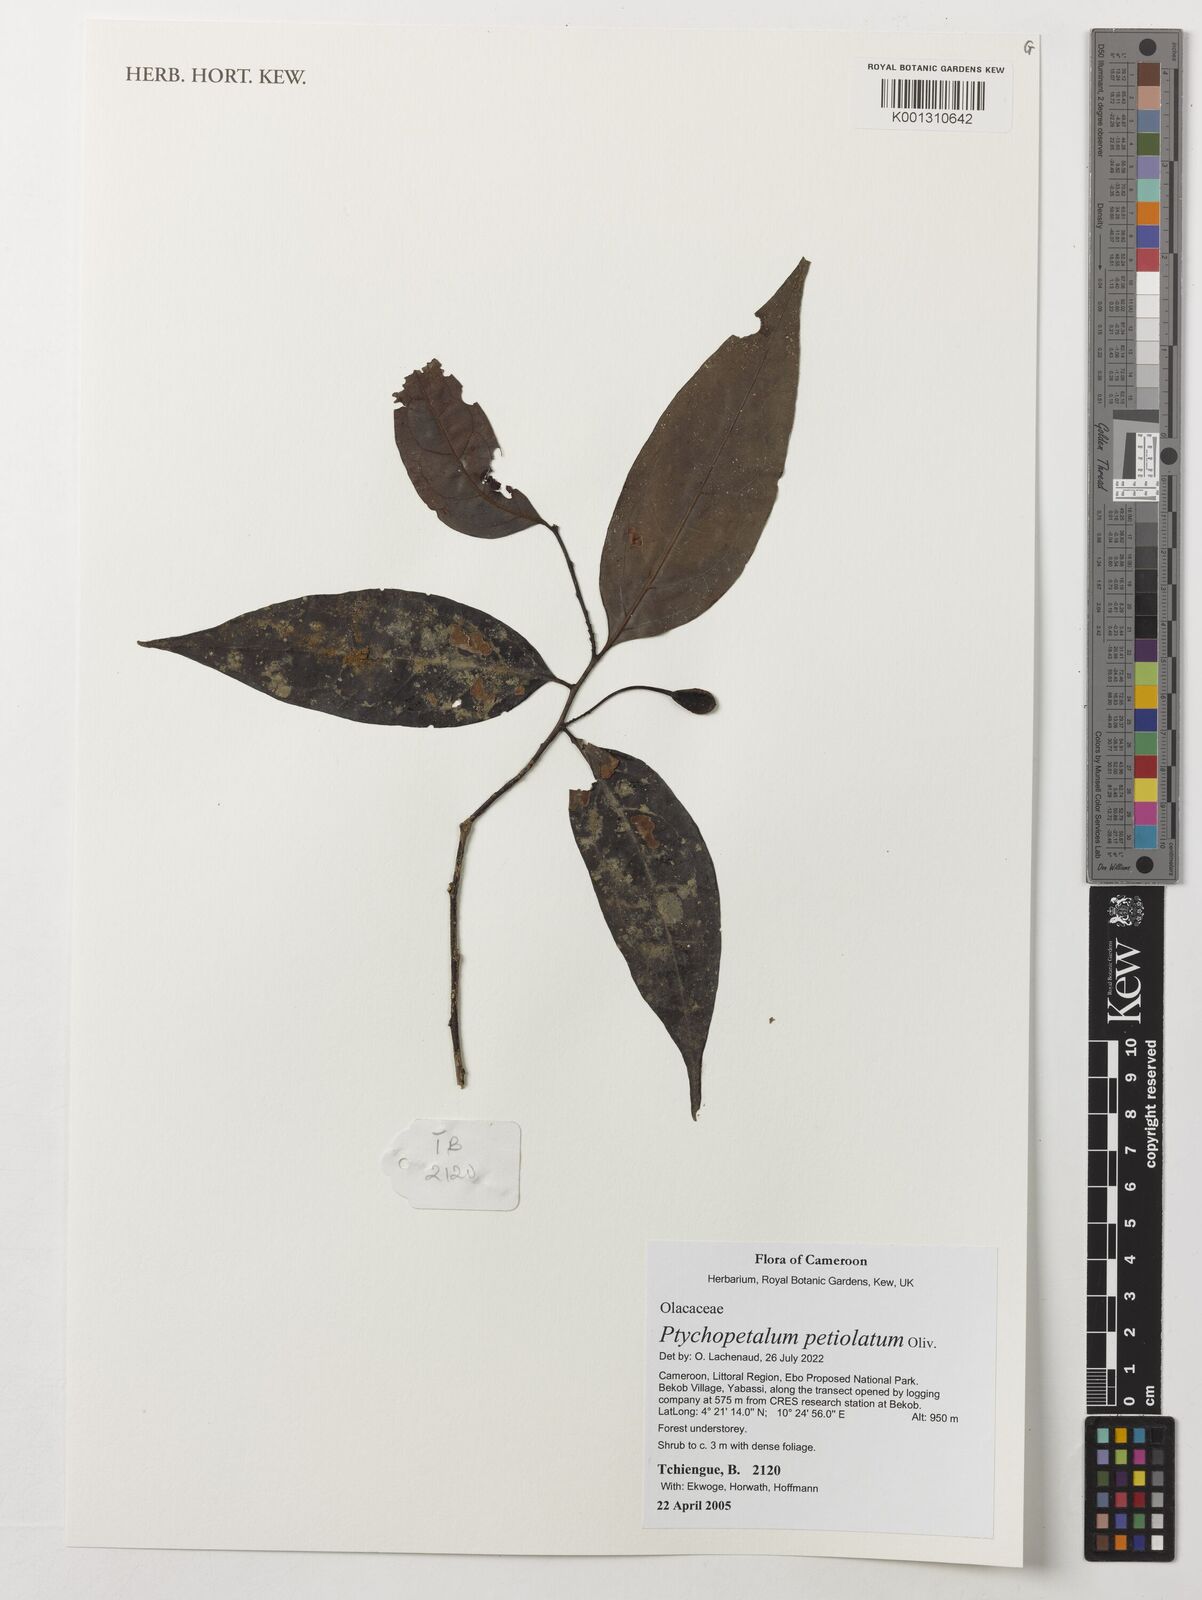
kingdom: Plantae
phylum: Tracheophyta
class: Magnoliopsida
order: Santalales
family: Olacaceae
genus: Ptychopetalum
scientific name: Ptychopetalum petiolatum
